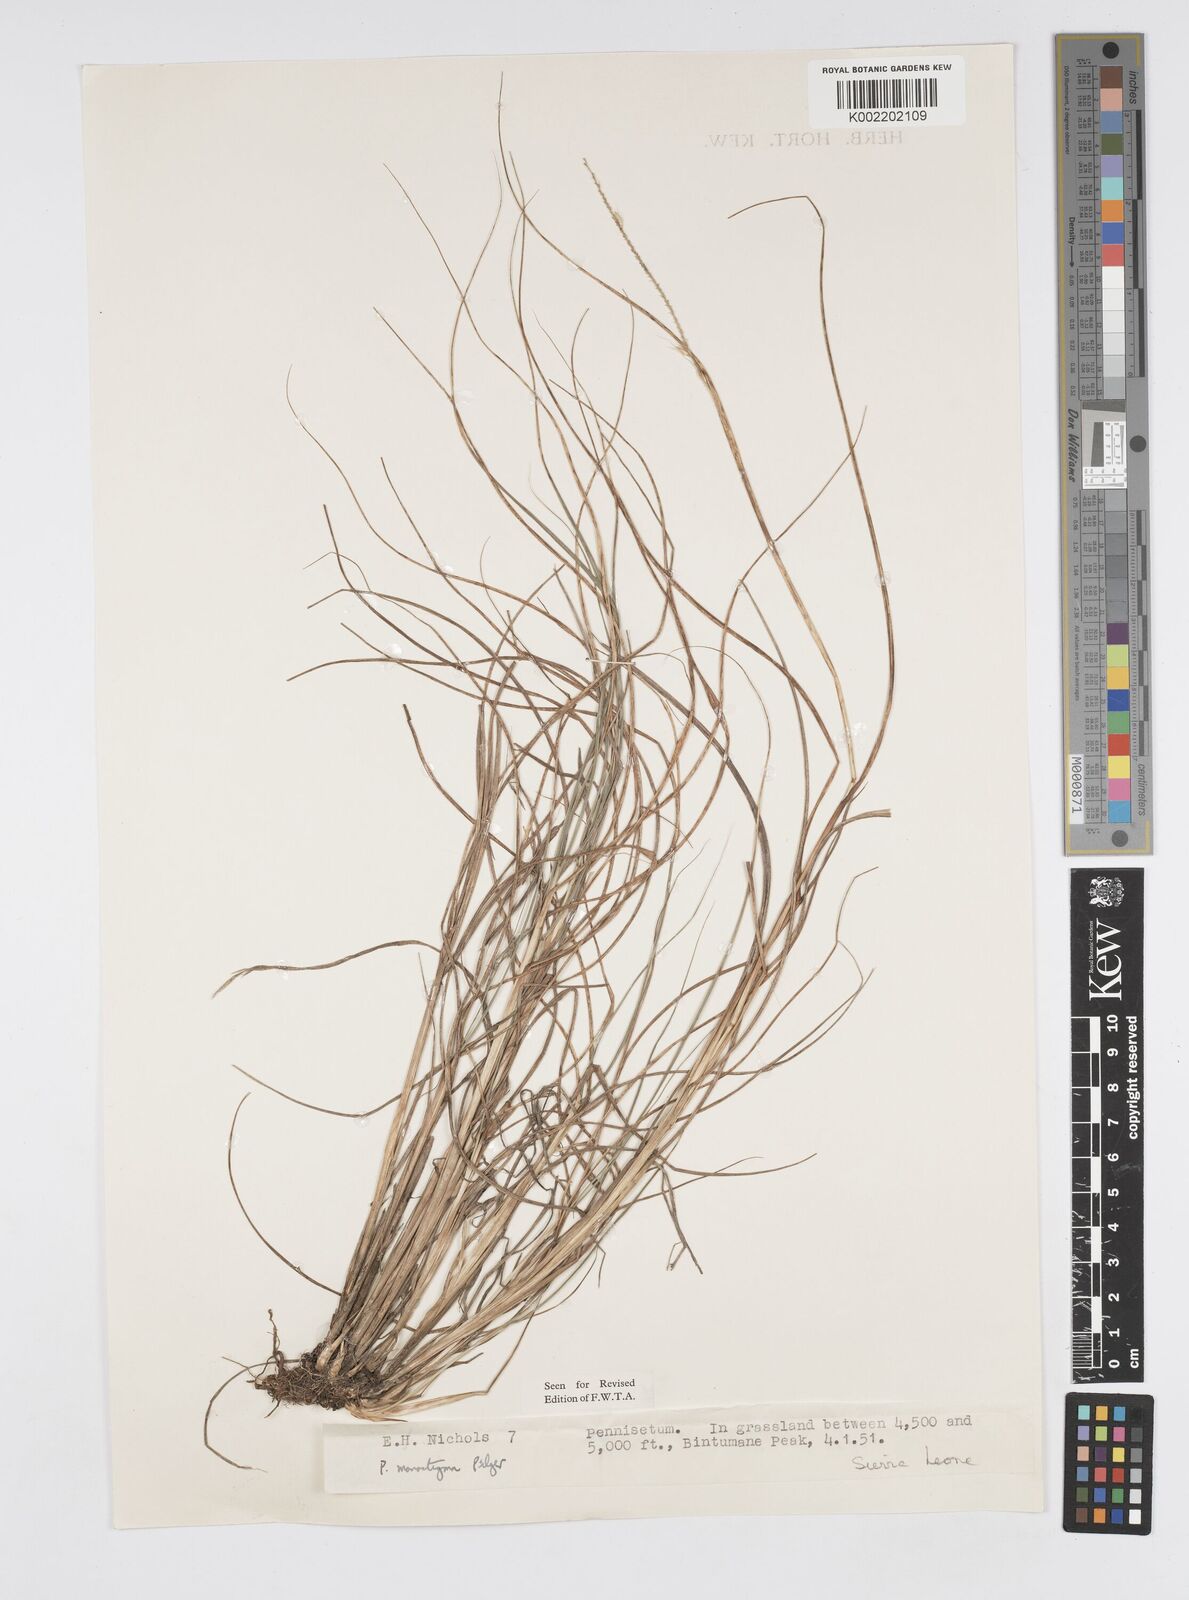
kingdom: Plantae
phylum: Tracheophyta
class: Liliopsida
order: Poales
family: Poaceae
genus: Cenchrus
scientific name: Cenchrus monostigma
